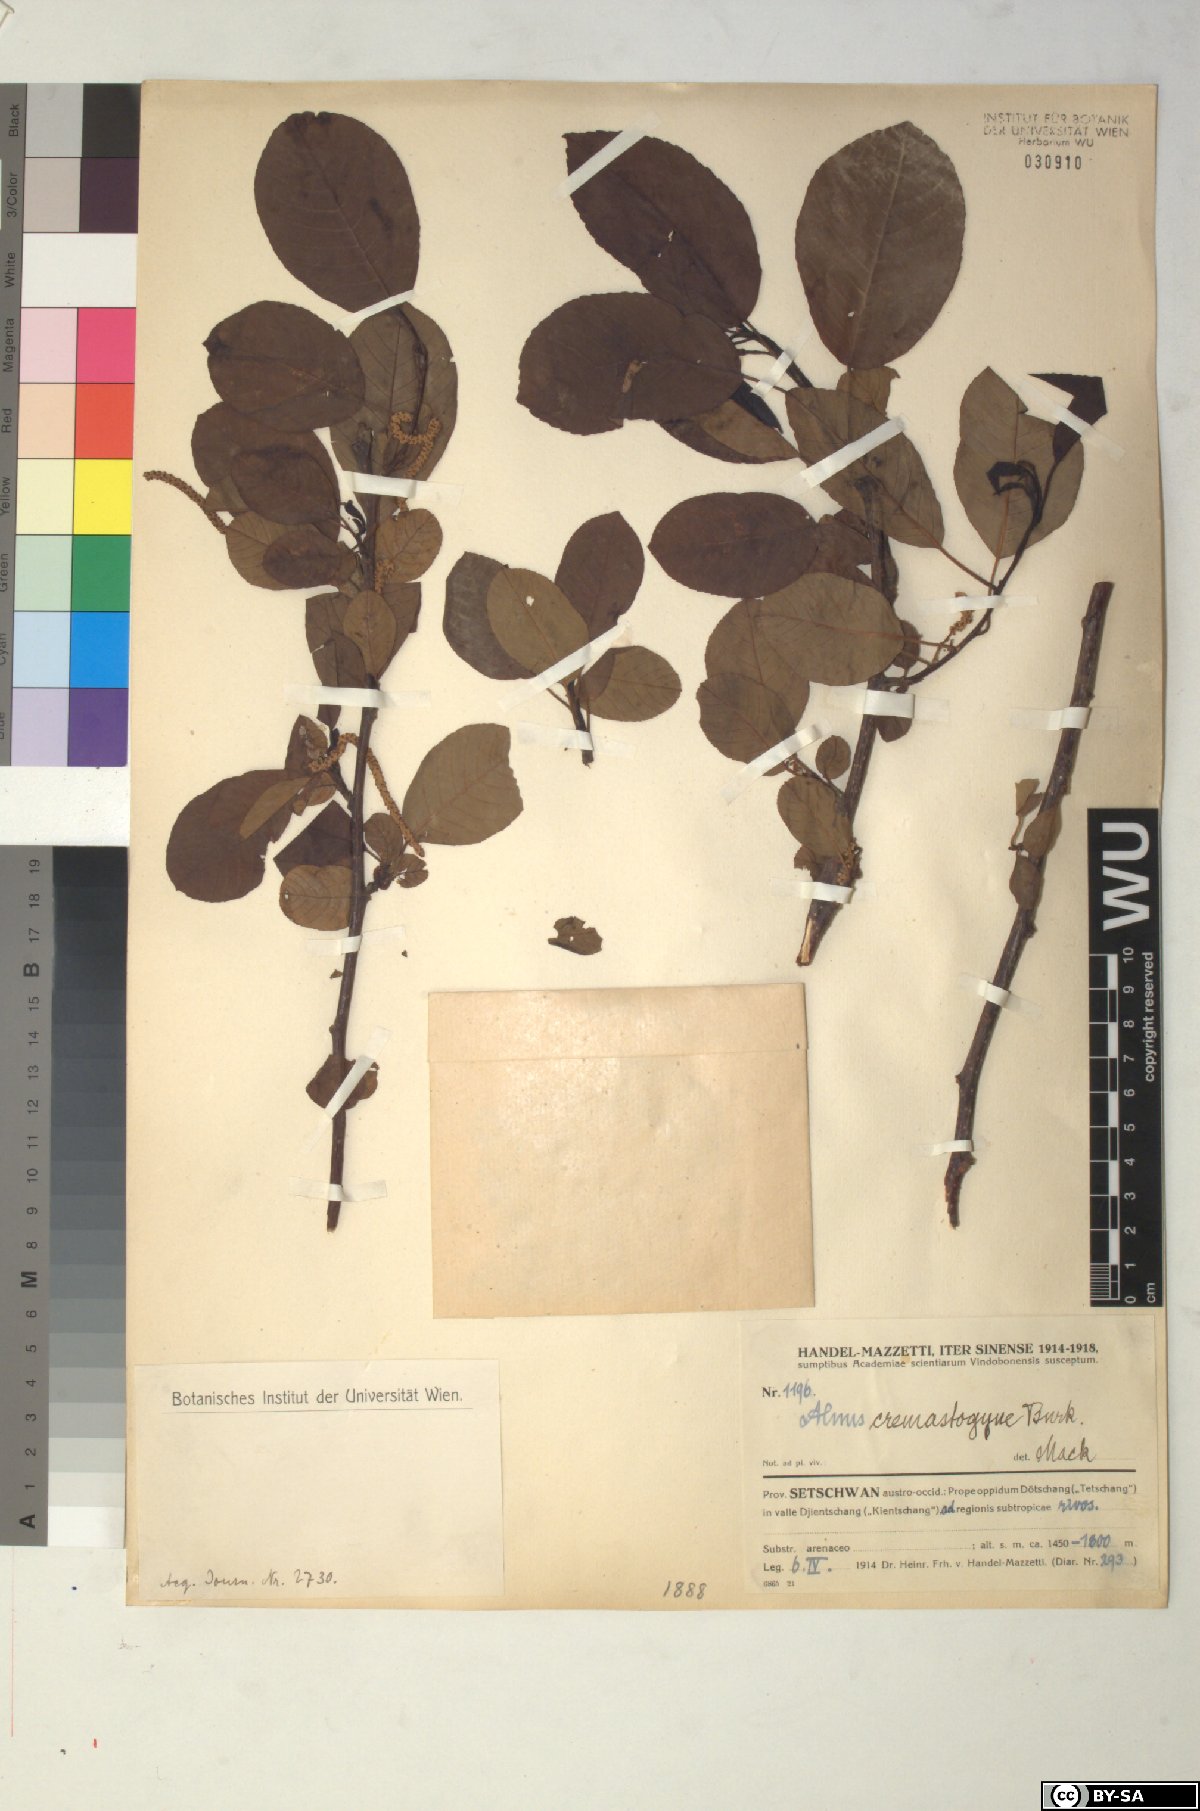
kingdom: Plantae
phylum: Tracheophyta
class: Magnoliopsida
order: Fagales
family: Betulaceae
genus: Alnus
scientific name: Alnus cremastogyne
